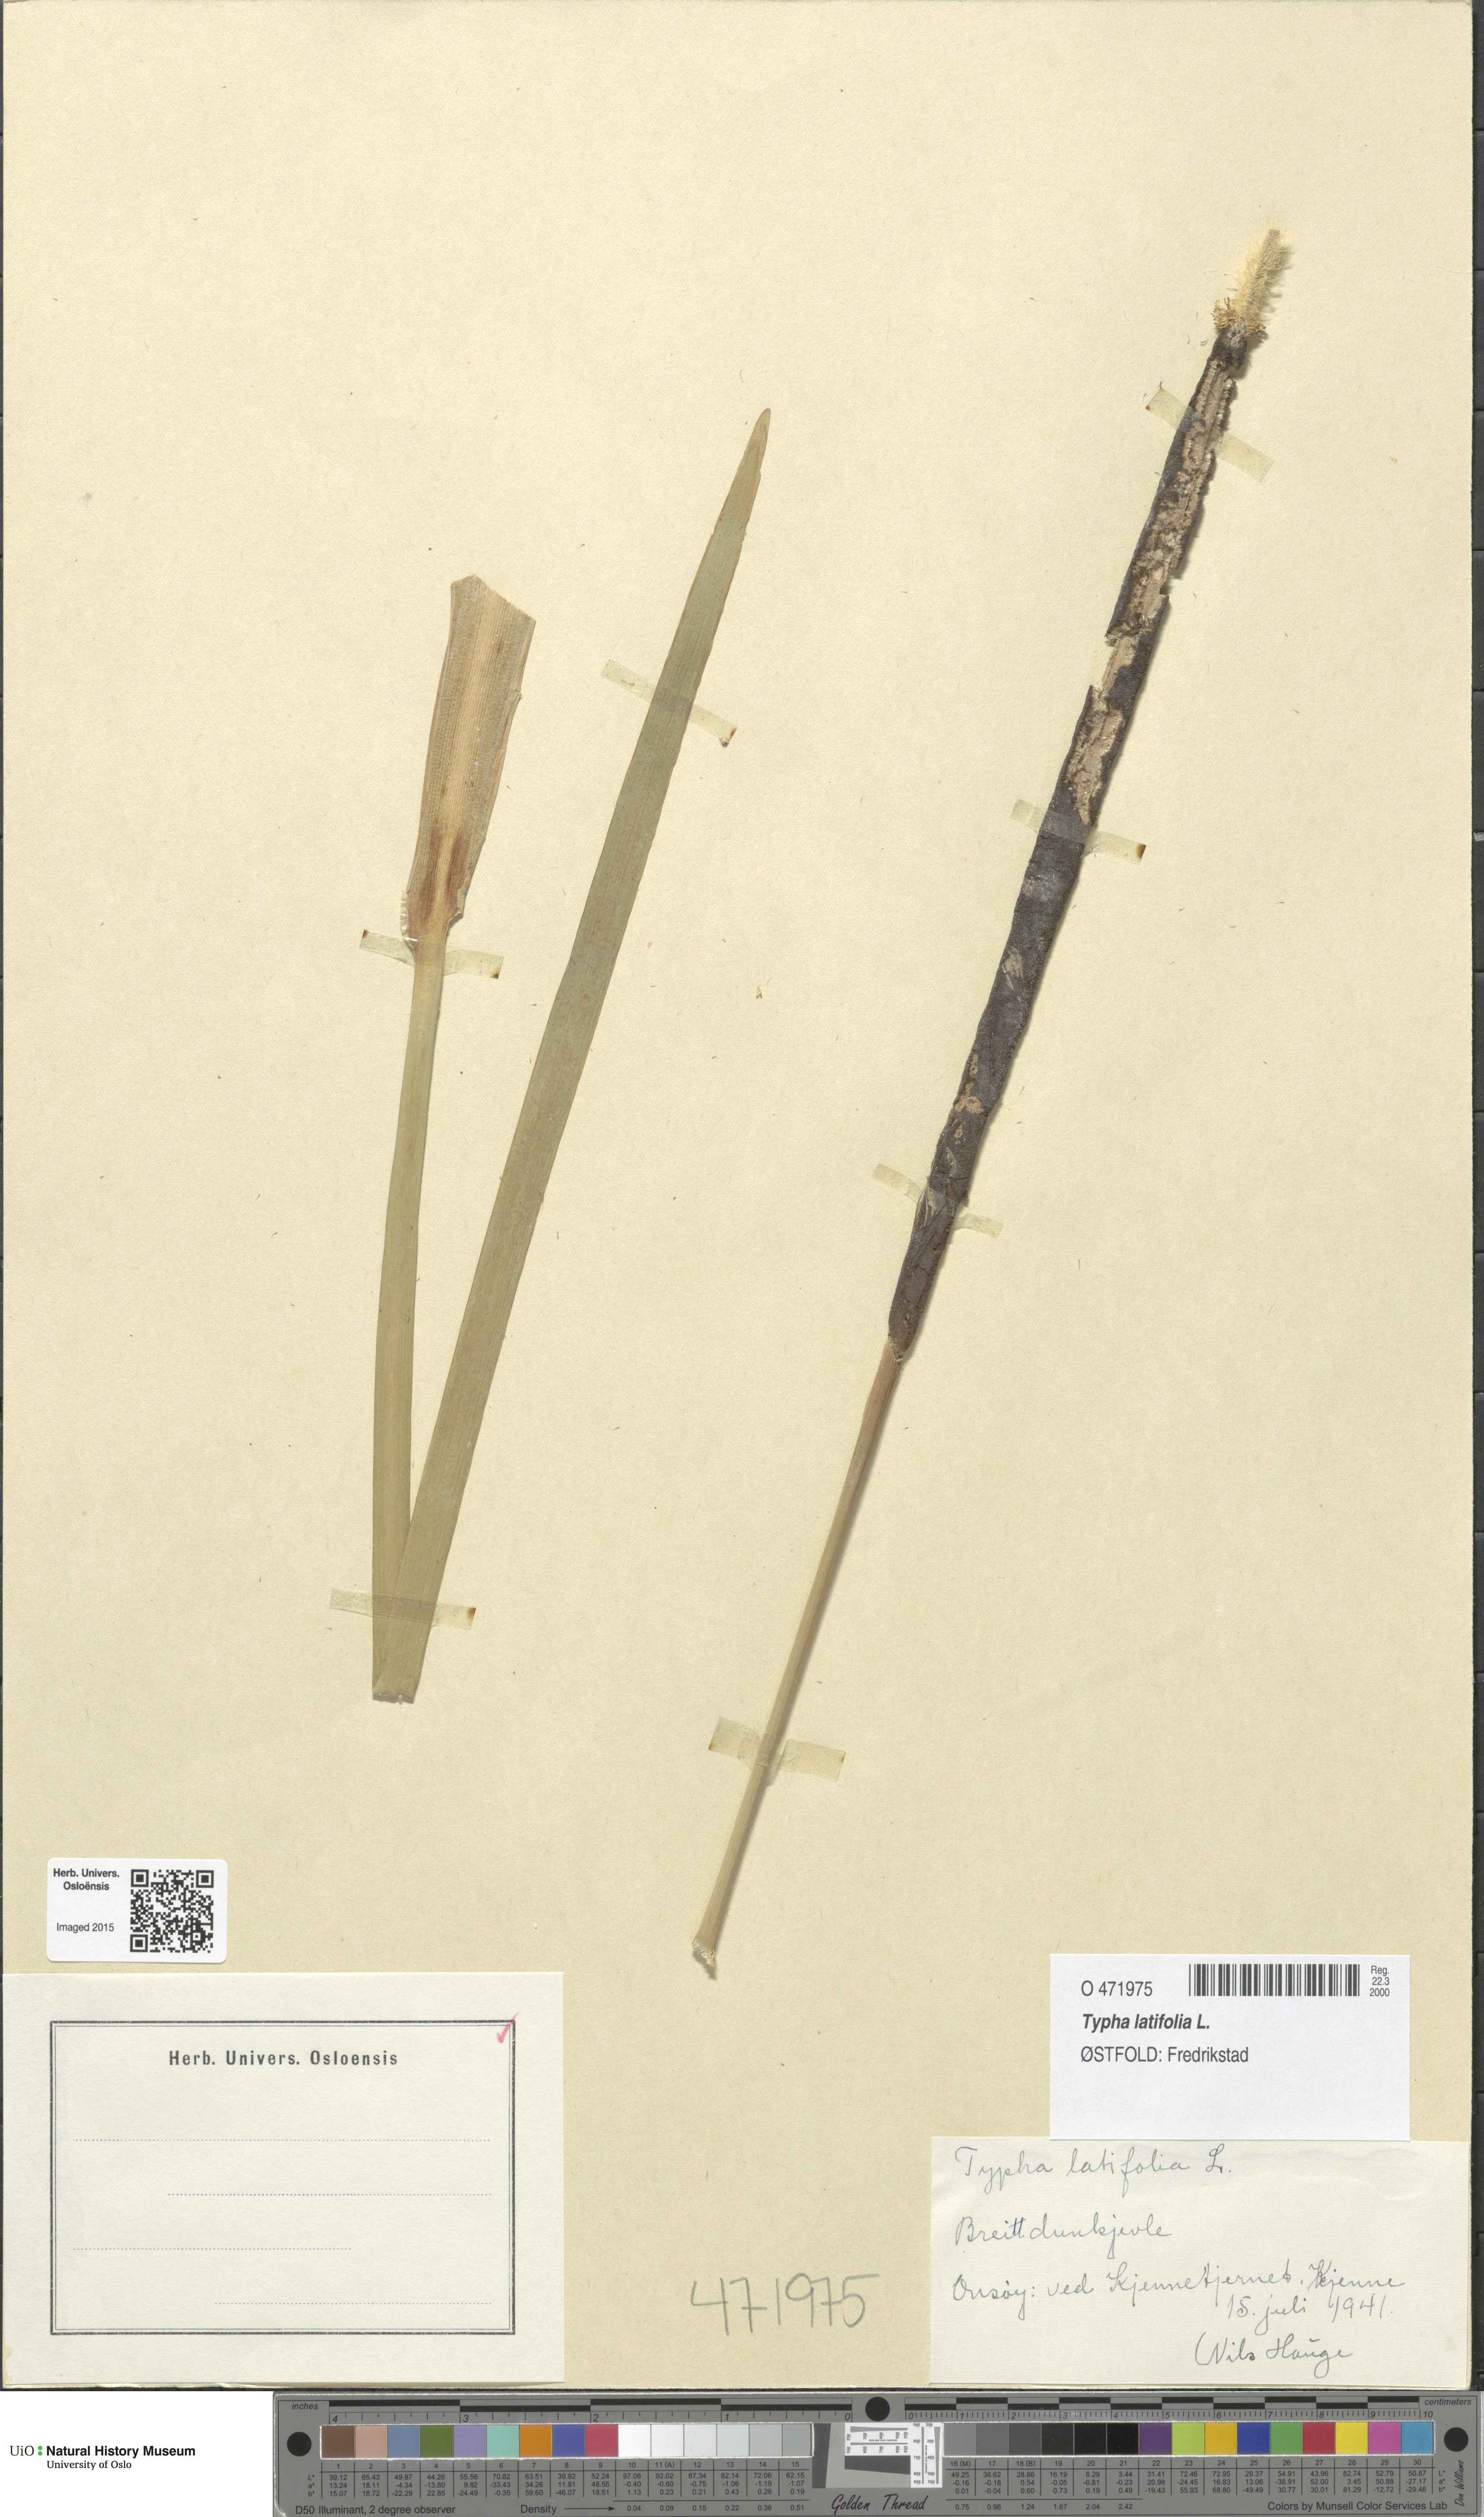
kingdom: Plantae
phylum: Tracheophyta
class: Liliopsida
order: Poales
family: Typhaceae
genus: Typha
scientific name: Typha latifolia
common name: Broadleaf cattail
